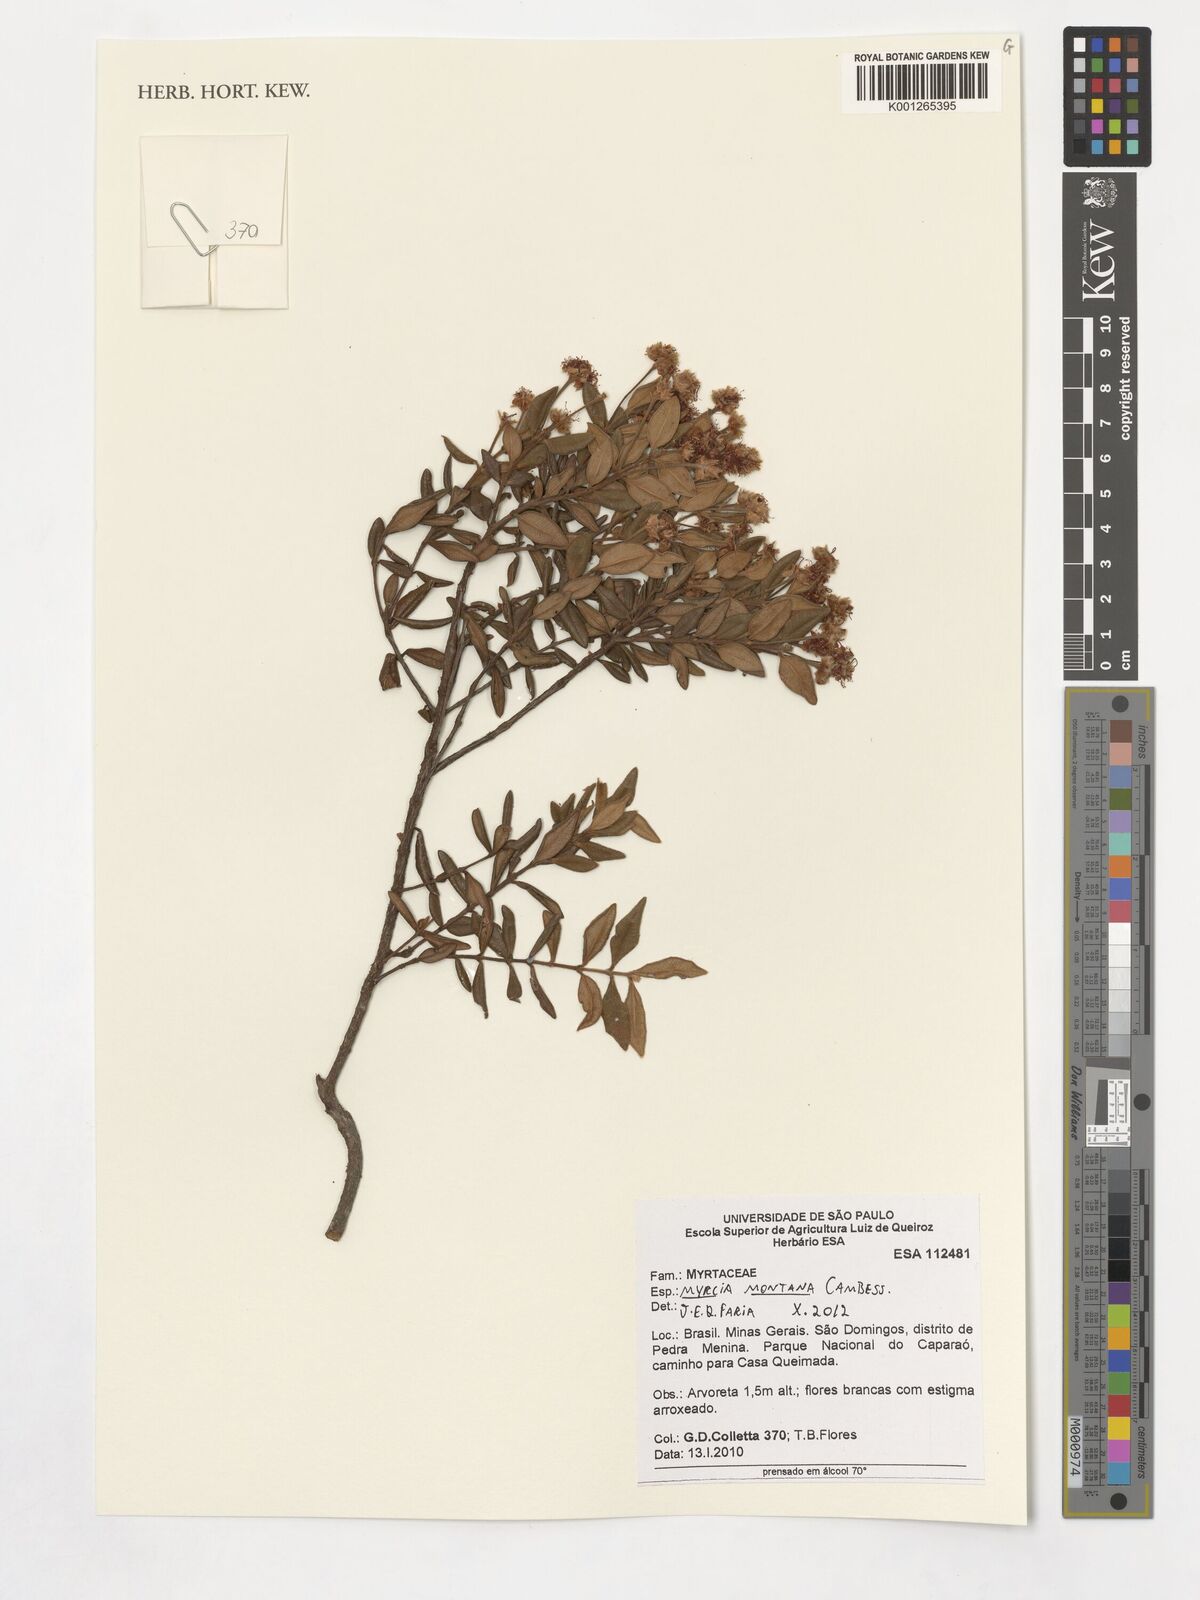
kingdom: Plantae
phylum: Tracheophyta
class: Magnoliopsida
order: Myrtales
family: Myrtaceae
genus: Myrcia
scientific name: Myrcia montana
